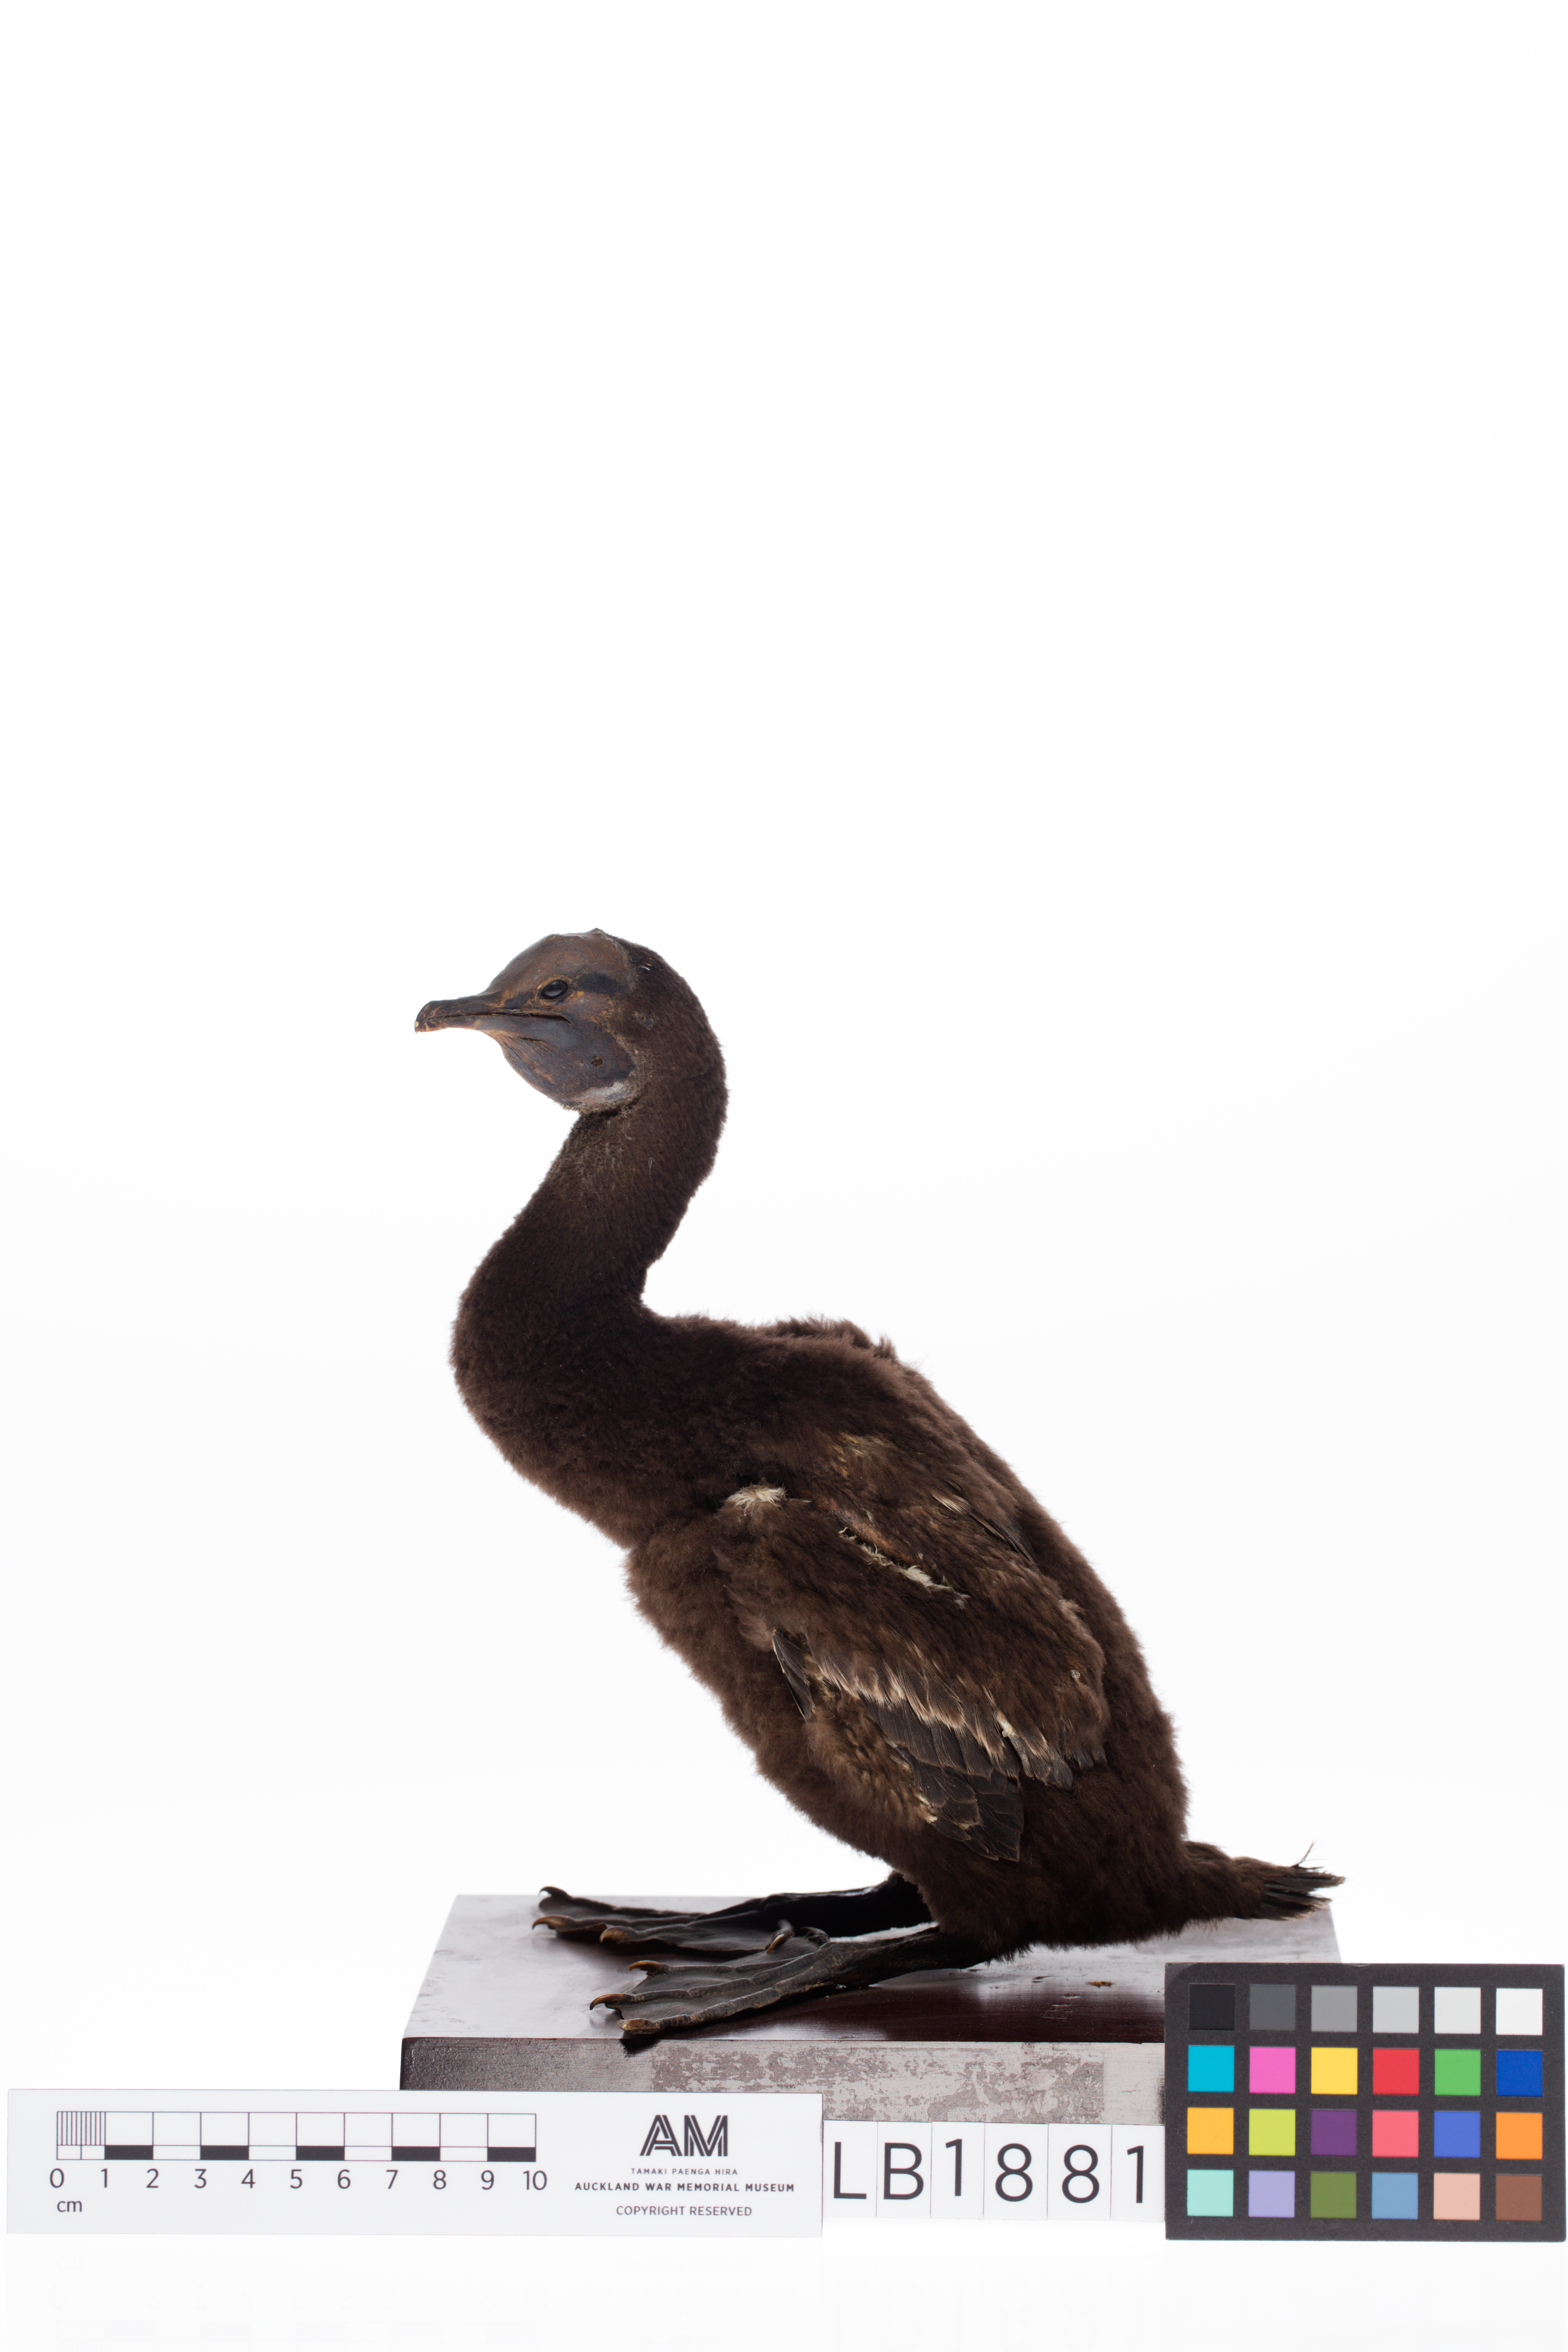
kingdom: Animalia
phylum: Chordata
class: Aves
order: Suliformes
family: Phalacrocoracidae
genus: Phalacrocorax
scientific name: Phalacrocorax sulcirostris
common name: Little black cormorant
